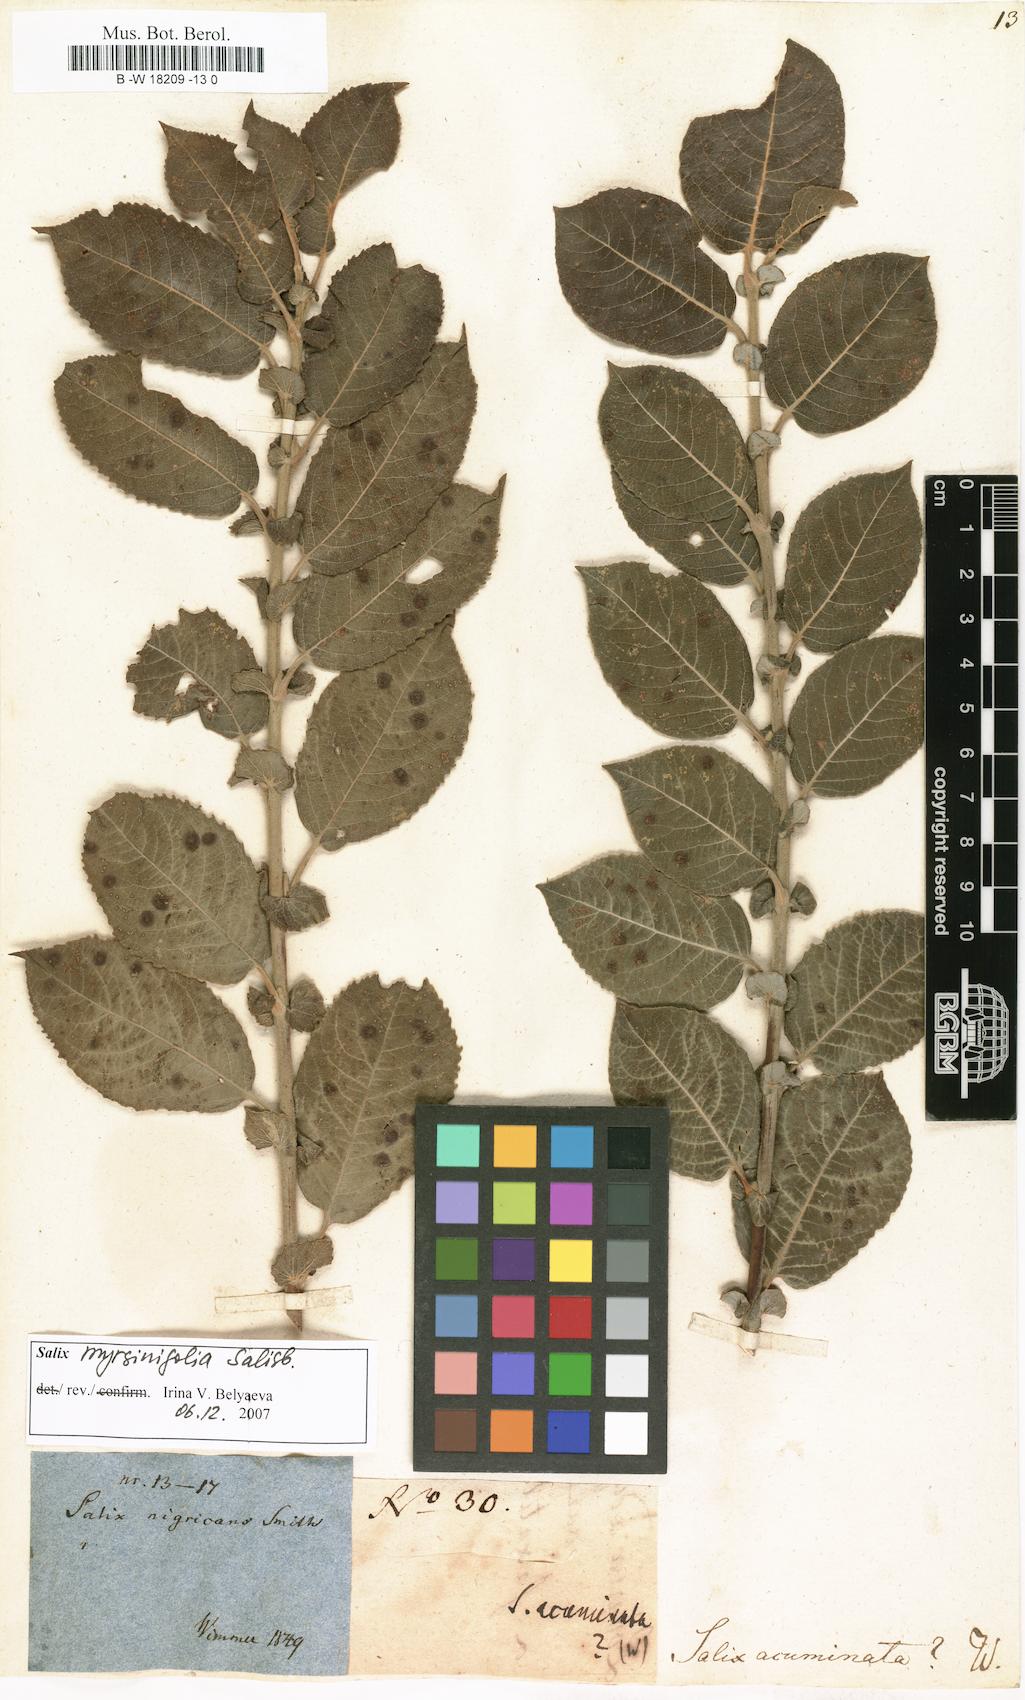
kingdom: Plantae
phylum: Tracheophyta
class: Magnoliopsida
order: Malpighiales
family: Salicaceae
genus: Salix
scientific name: Salix
